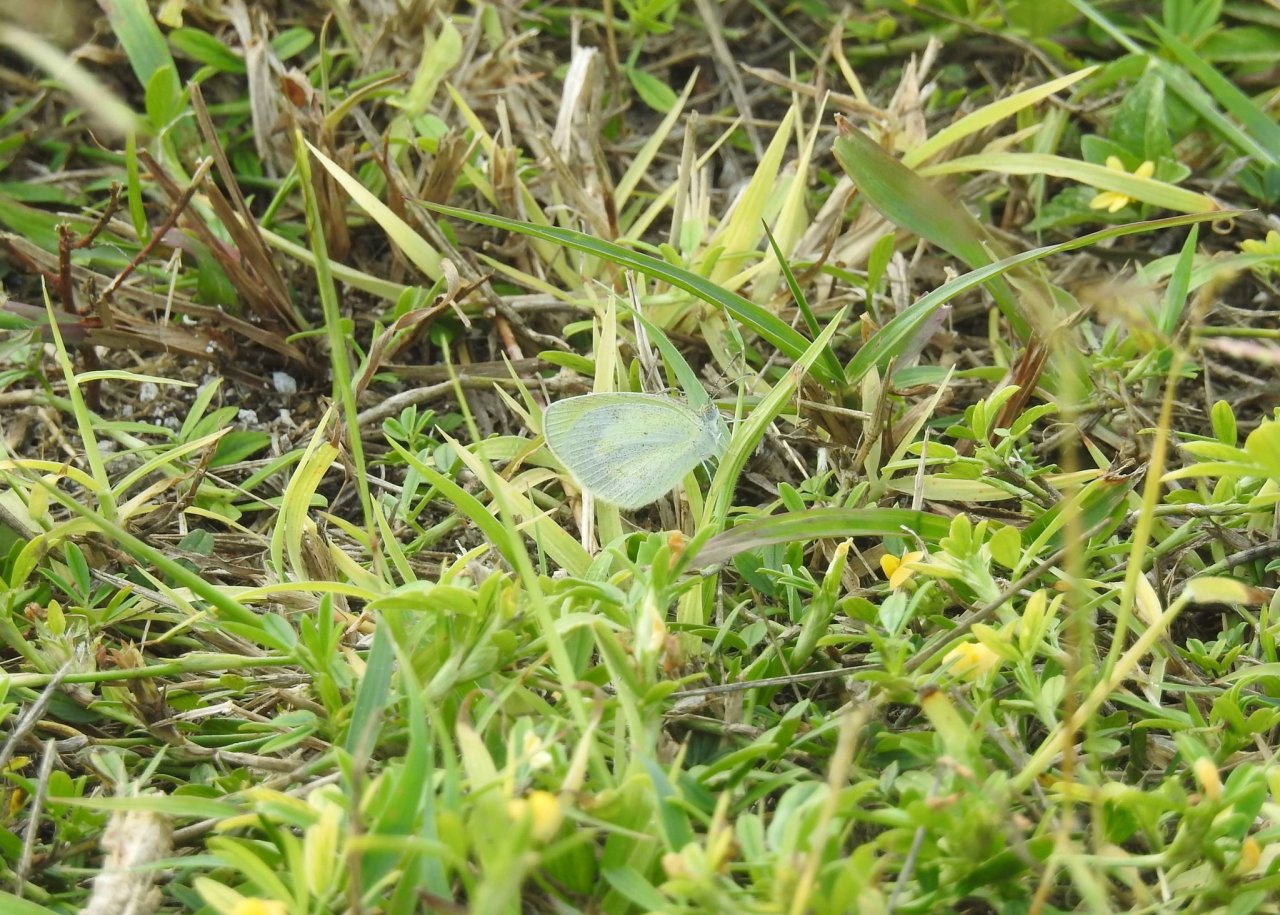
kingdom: Animalia
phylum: Arthropoda
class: Insecta
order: Lepidoptera
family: Pieridae
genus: Eurema
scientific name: Eurema daira
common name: Barred Yellow
